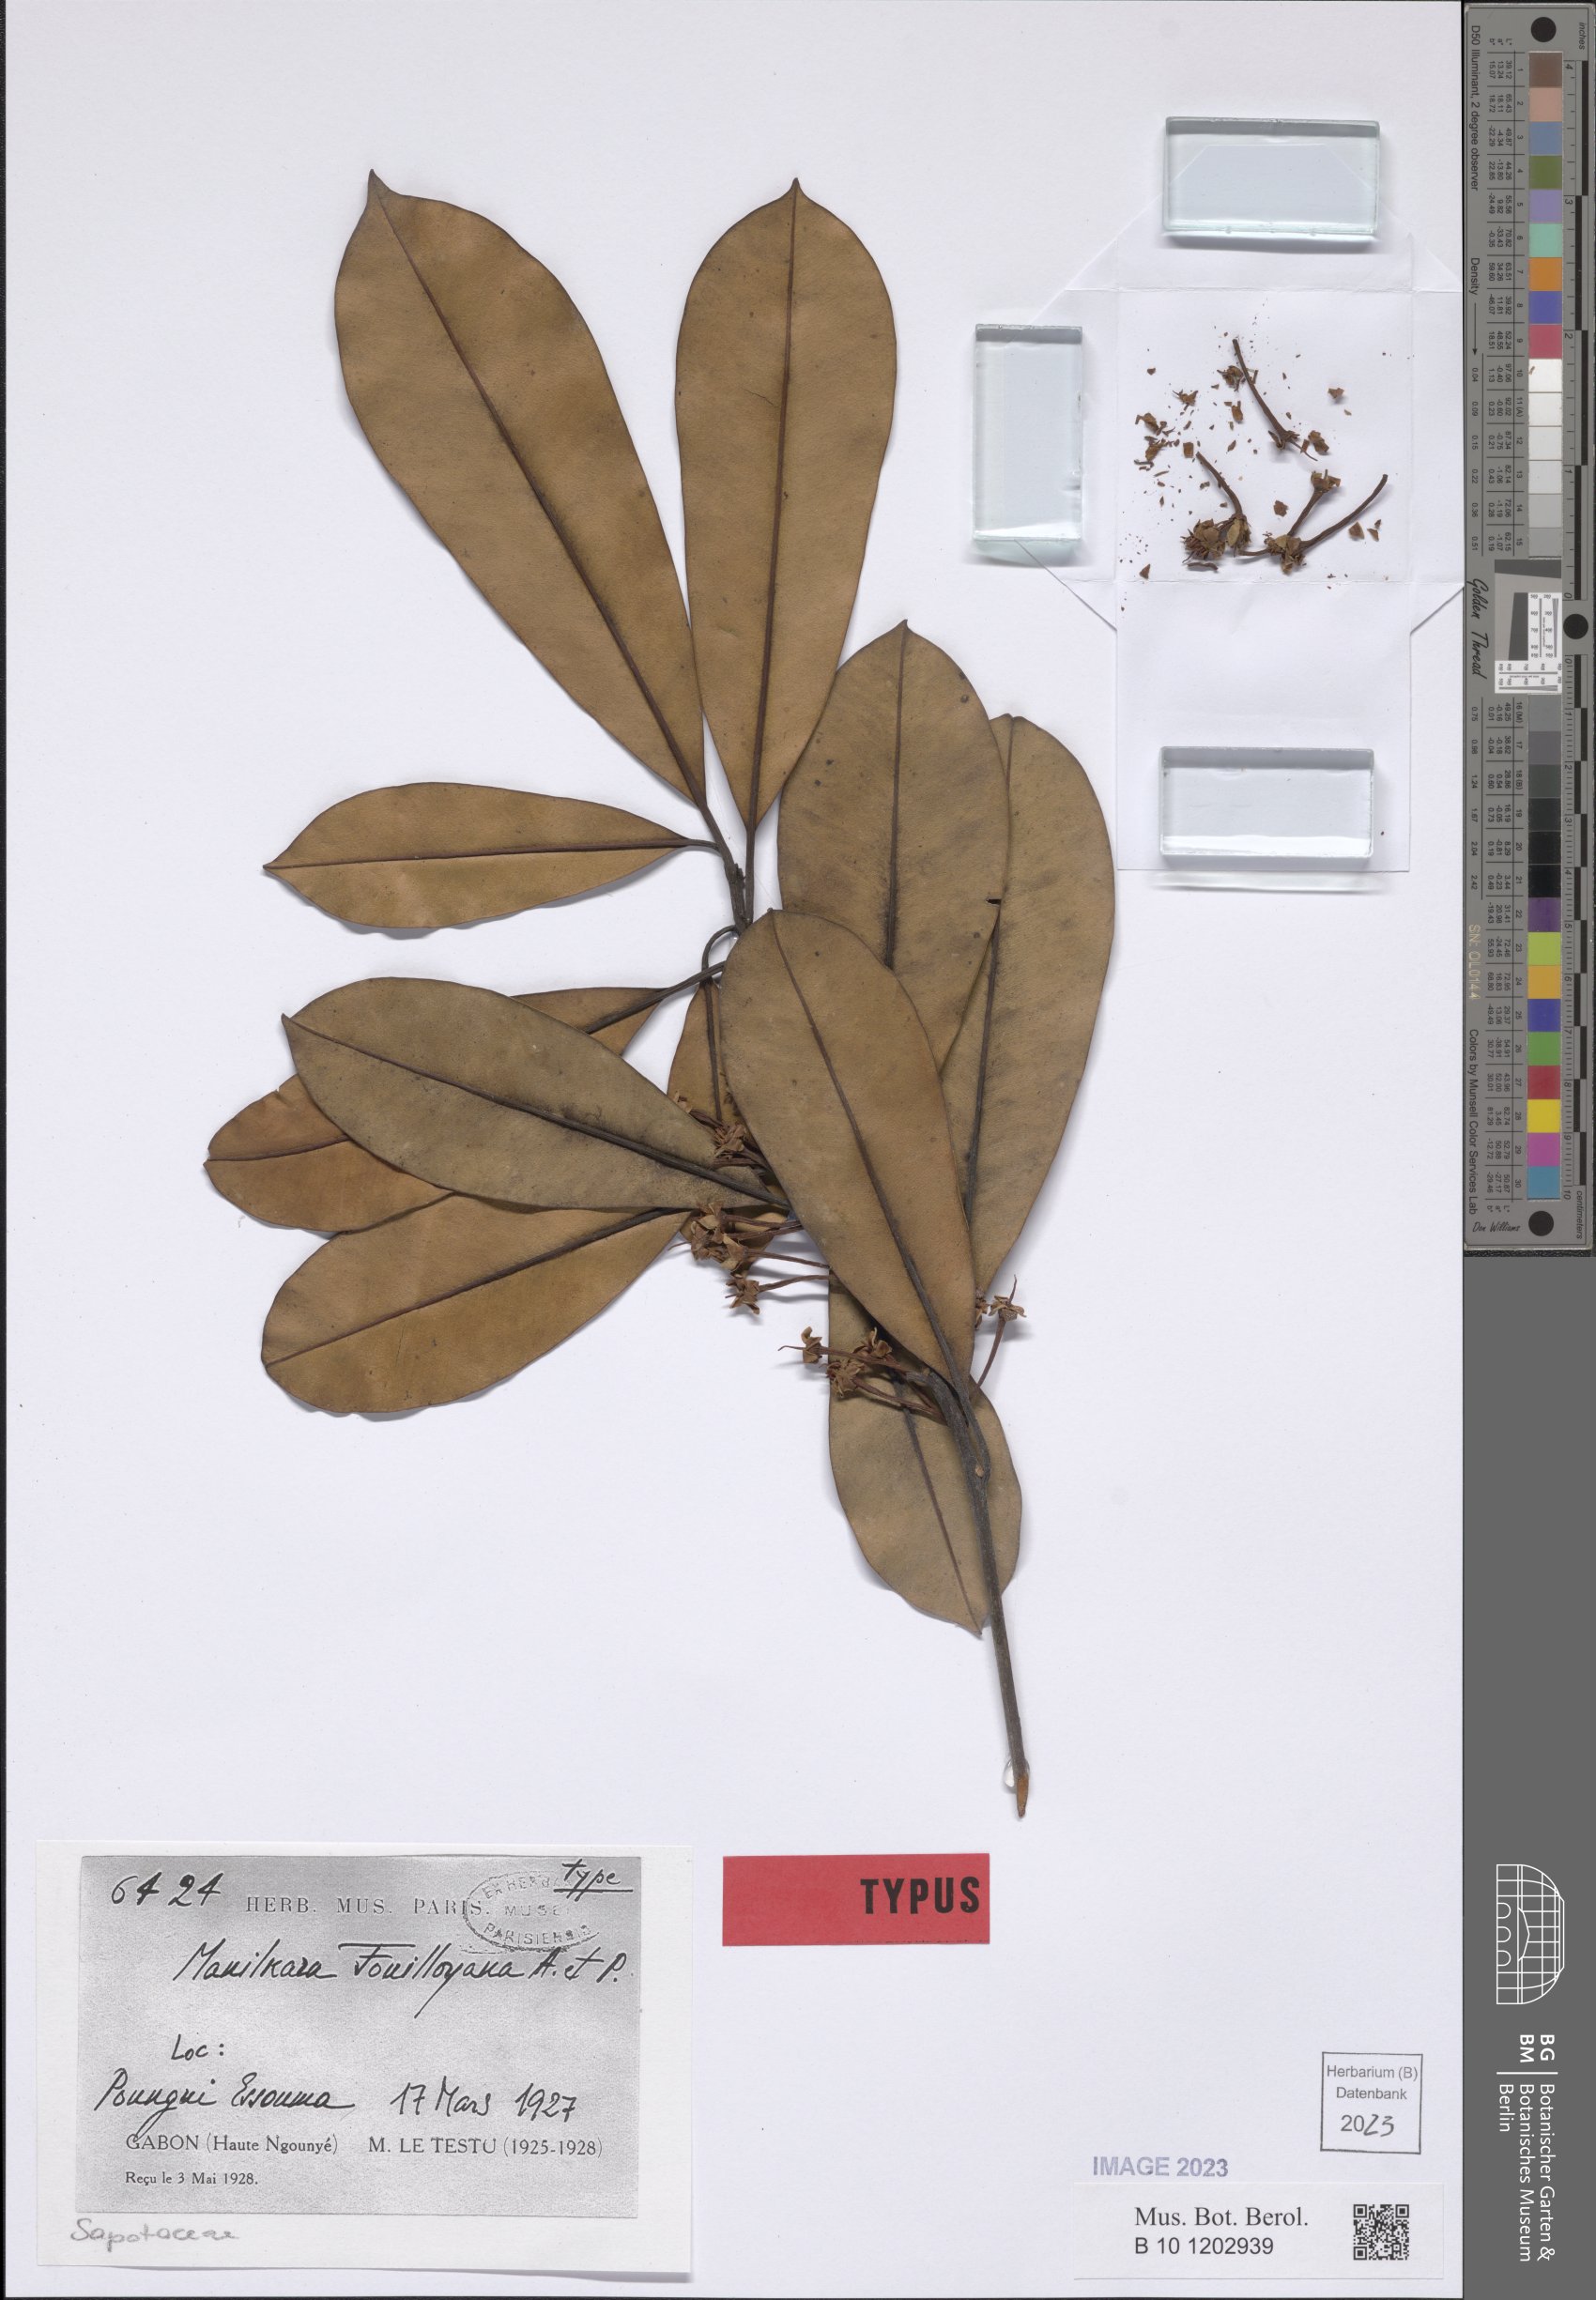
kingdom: Plantae
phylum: Tracheophyta
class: Magnoliopsida
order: Ericales
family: Sapotaceae
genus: Manilkara
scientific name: Manilkara fouilloyana
